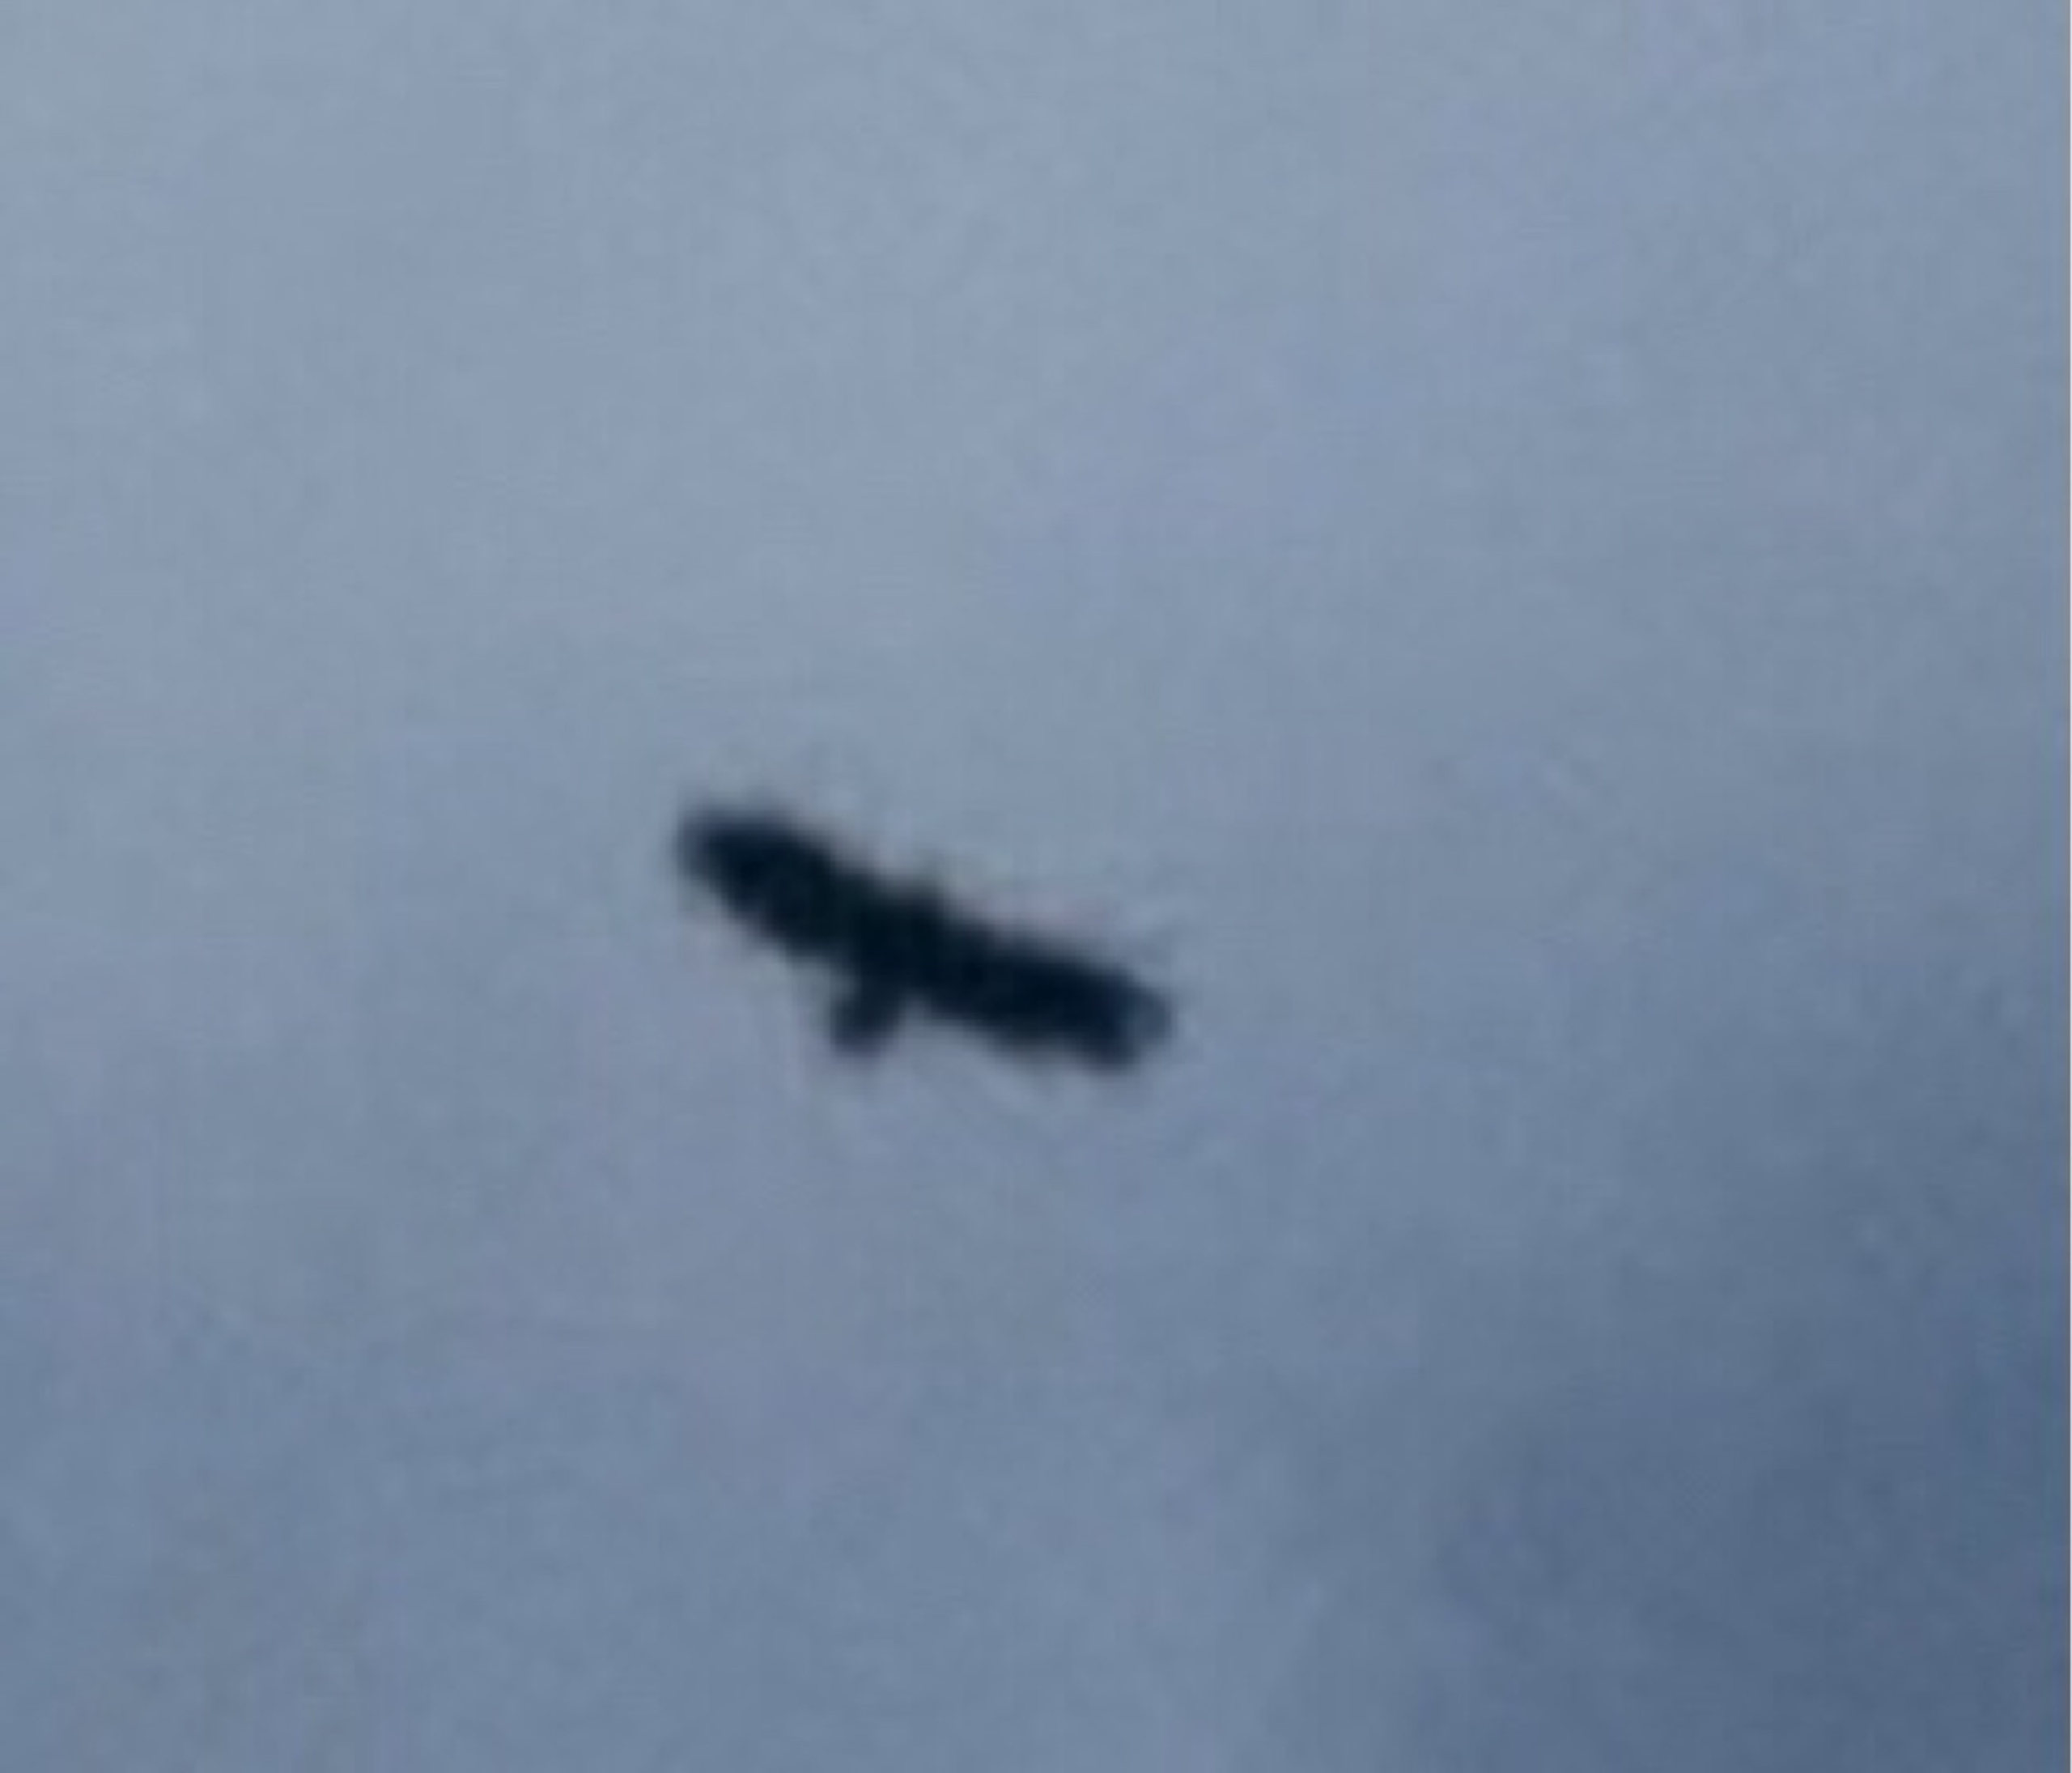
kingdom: Animalia
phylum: Chordata
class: Aves
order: Accipitriformes
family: Accipitridae
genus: Haliaeetus
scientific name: Haliaeetus albicilla
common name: Havørn
